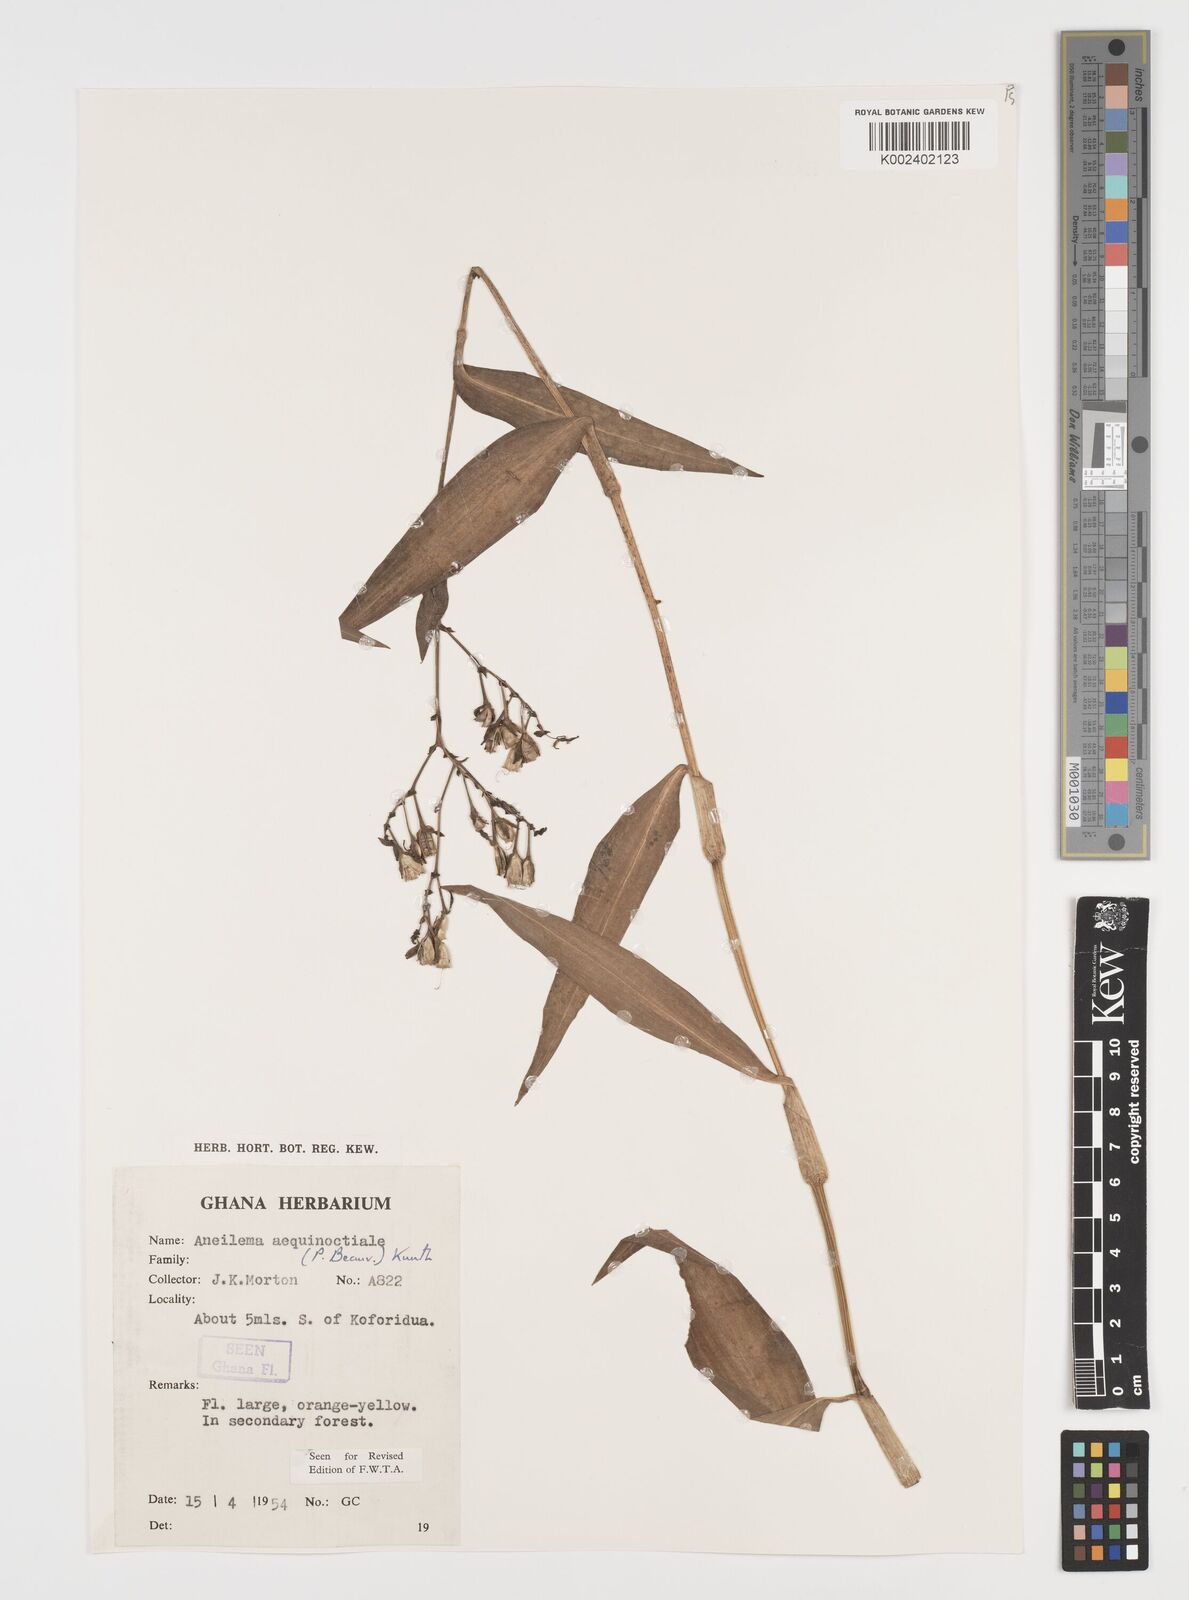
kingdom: Plantae
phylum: Tracheophyta
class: Liliopsida
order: Commelinales
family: Commelinaceae
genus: Aneilema
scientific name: Aneilema aequinoctiale
